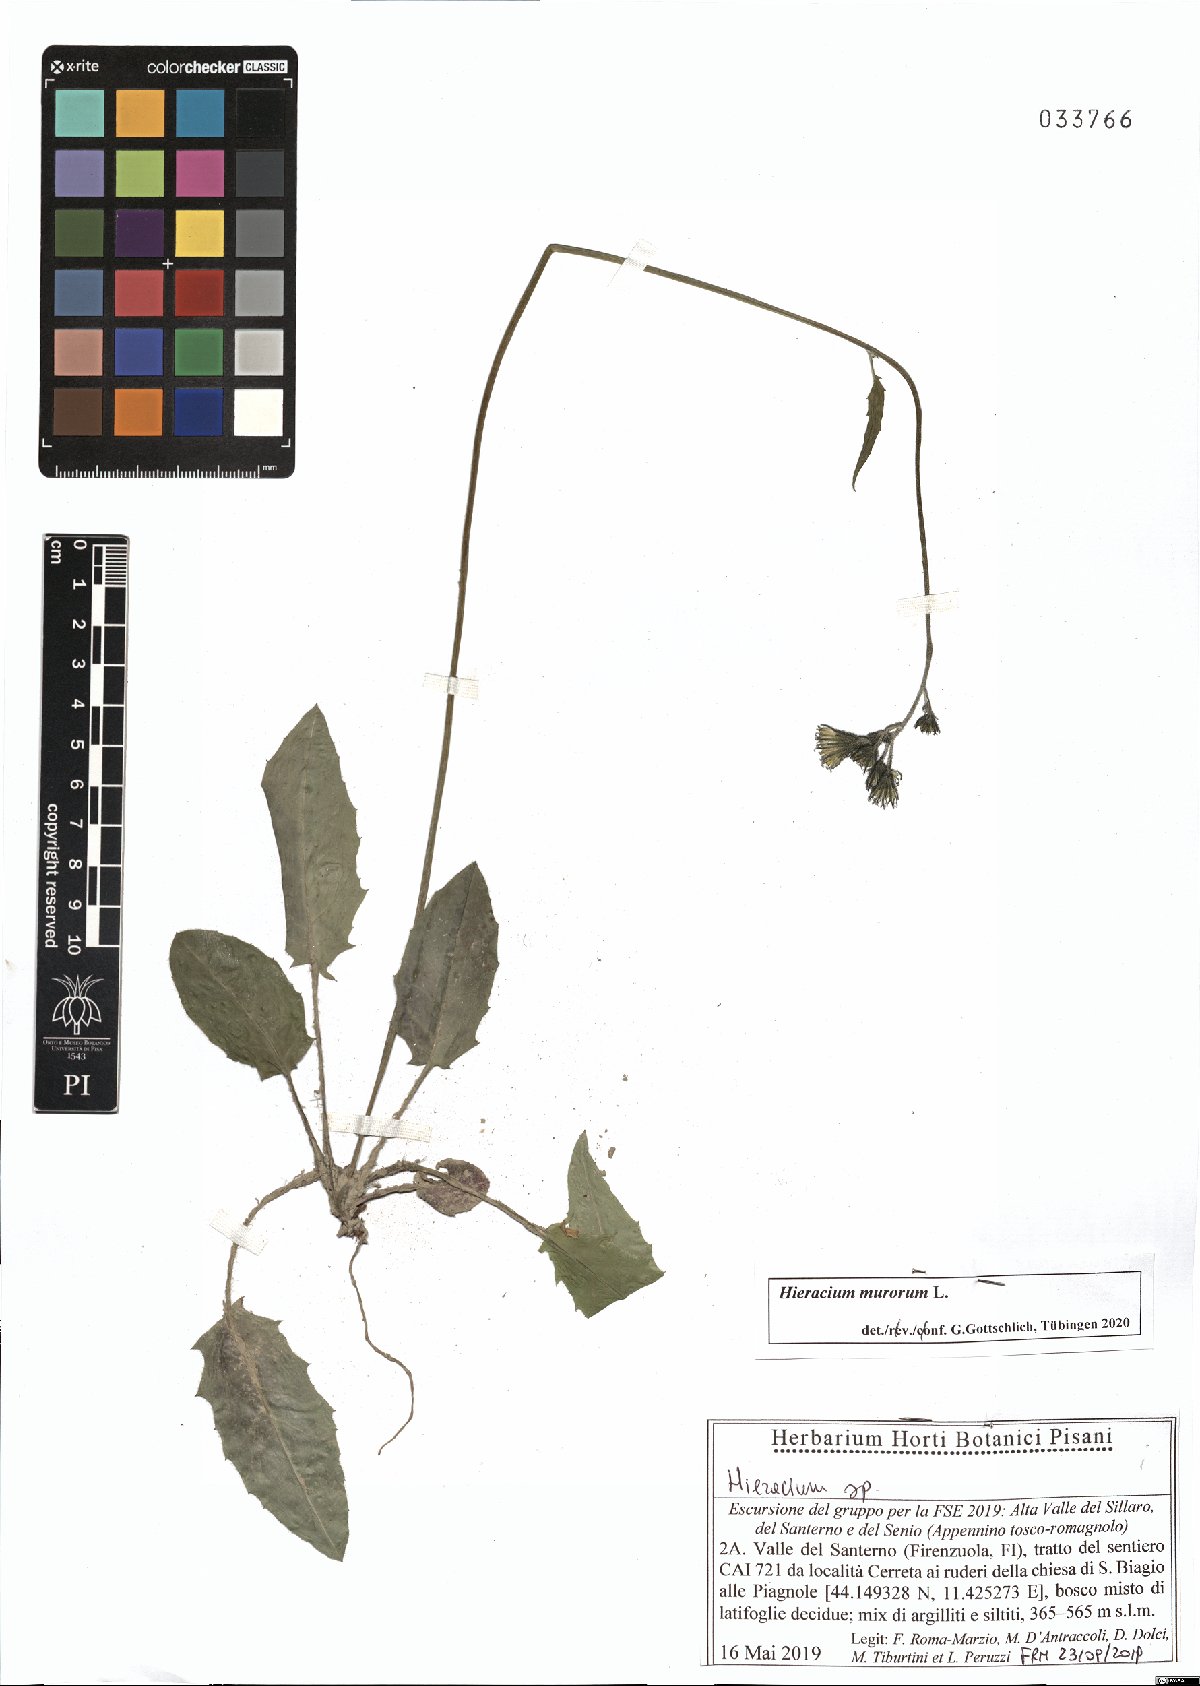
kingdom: Plantae
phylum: Tracheophyta
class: Magnoliopsida
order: Asterales
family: Asteraceae
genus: Hieracium
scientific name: Hieracium murorum
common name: Wall hawkweed
